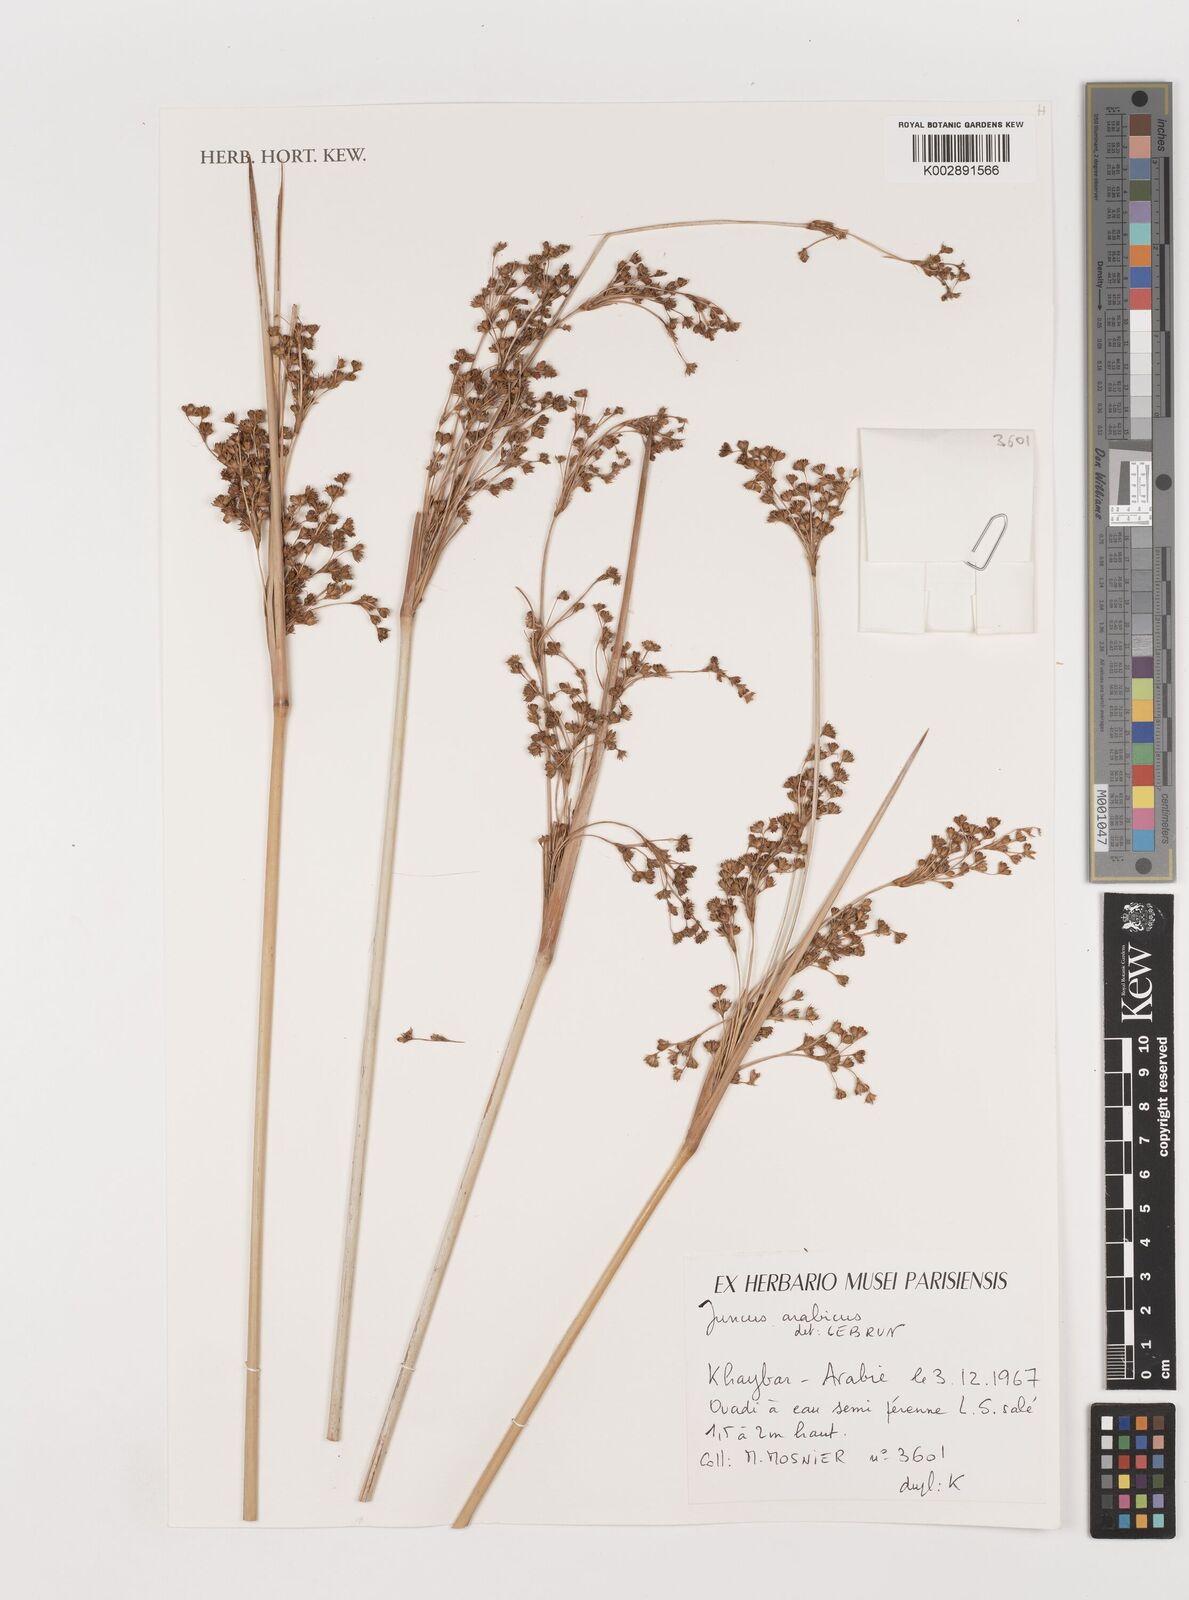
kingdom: Plantae
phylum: Tracheophyta
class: Liliopsida
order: Poales
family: Juncaceae
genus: Juncus
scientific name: Juncus rigidus
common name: Hard sea rush
